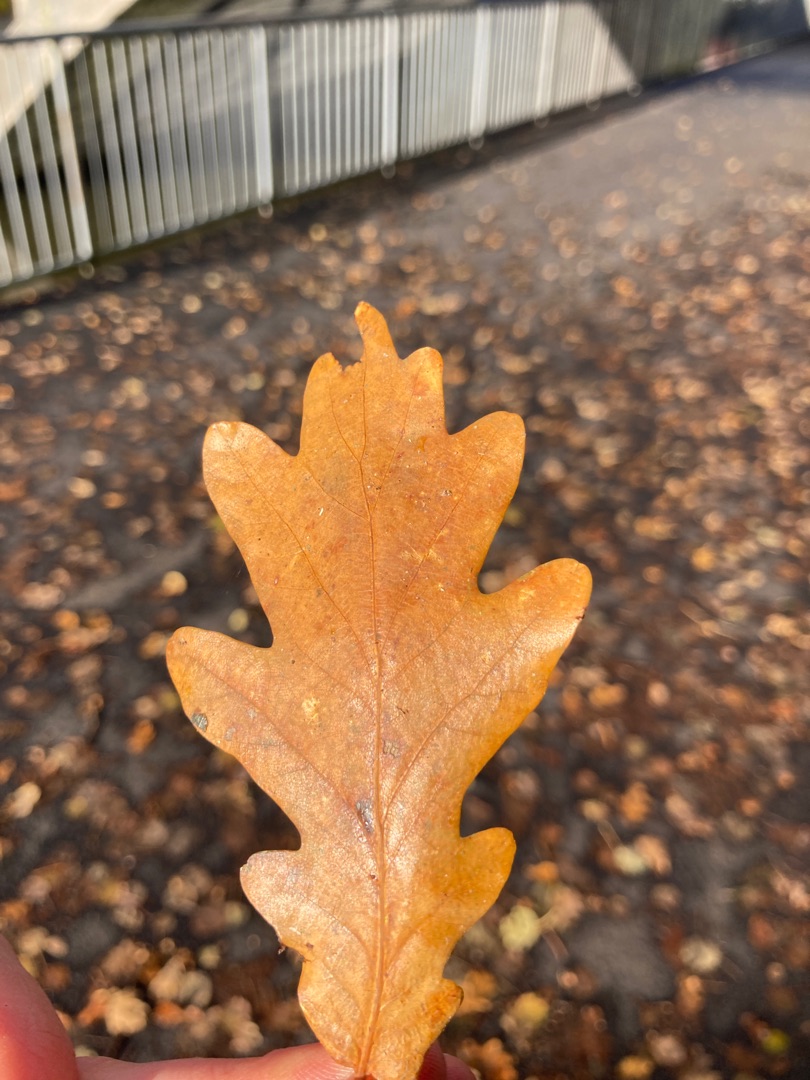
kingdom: Plantae
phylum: Tracheophyta
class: Magnoliopsida
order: Fagales
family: Fagaceae
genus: Quercus
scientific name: Quercus robur
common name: Stilk-eg/almindelig eg
